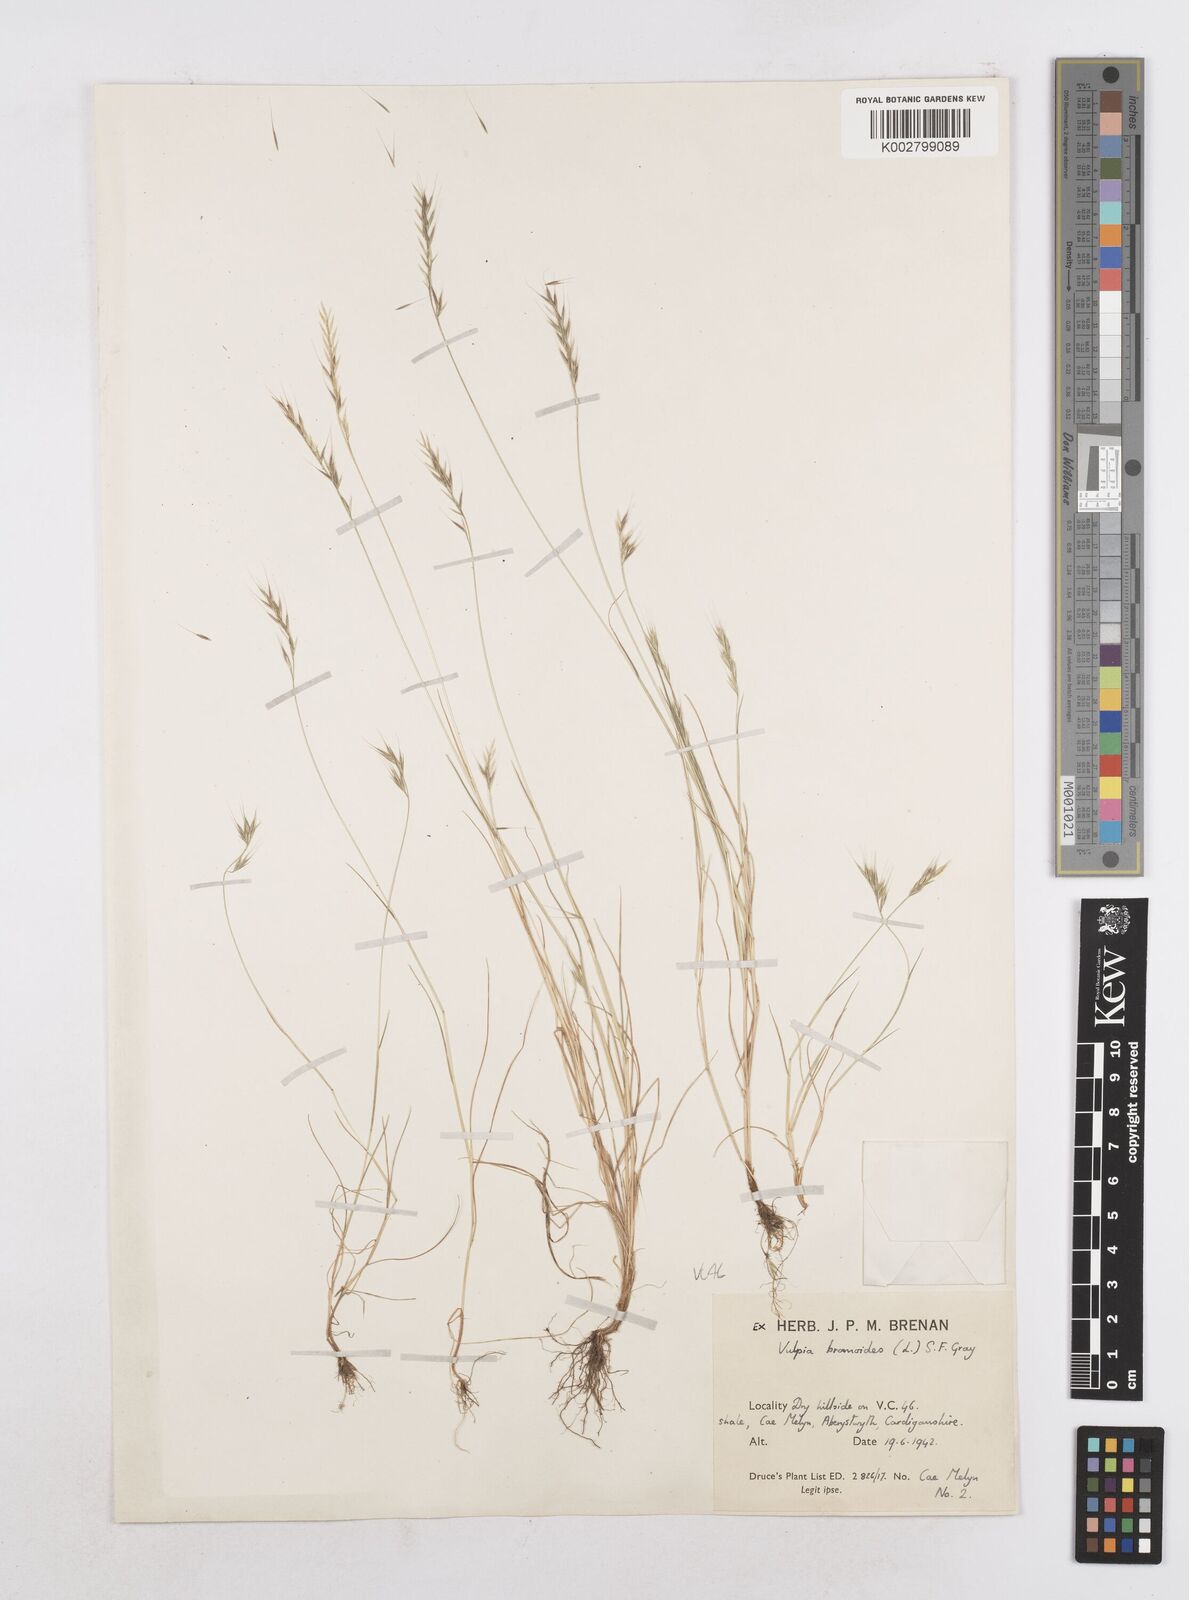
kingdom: Plantae
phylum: Tracheophyta
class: Liliopsida
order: Poales
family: Poaceae
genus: Festuca
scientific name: Festuca bromoides
